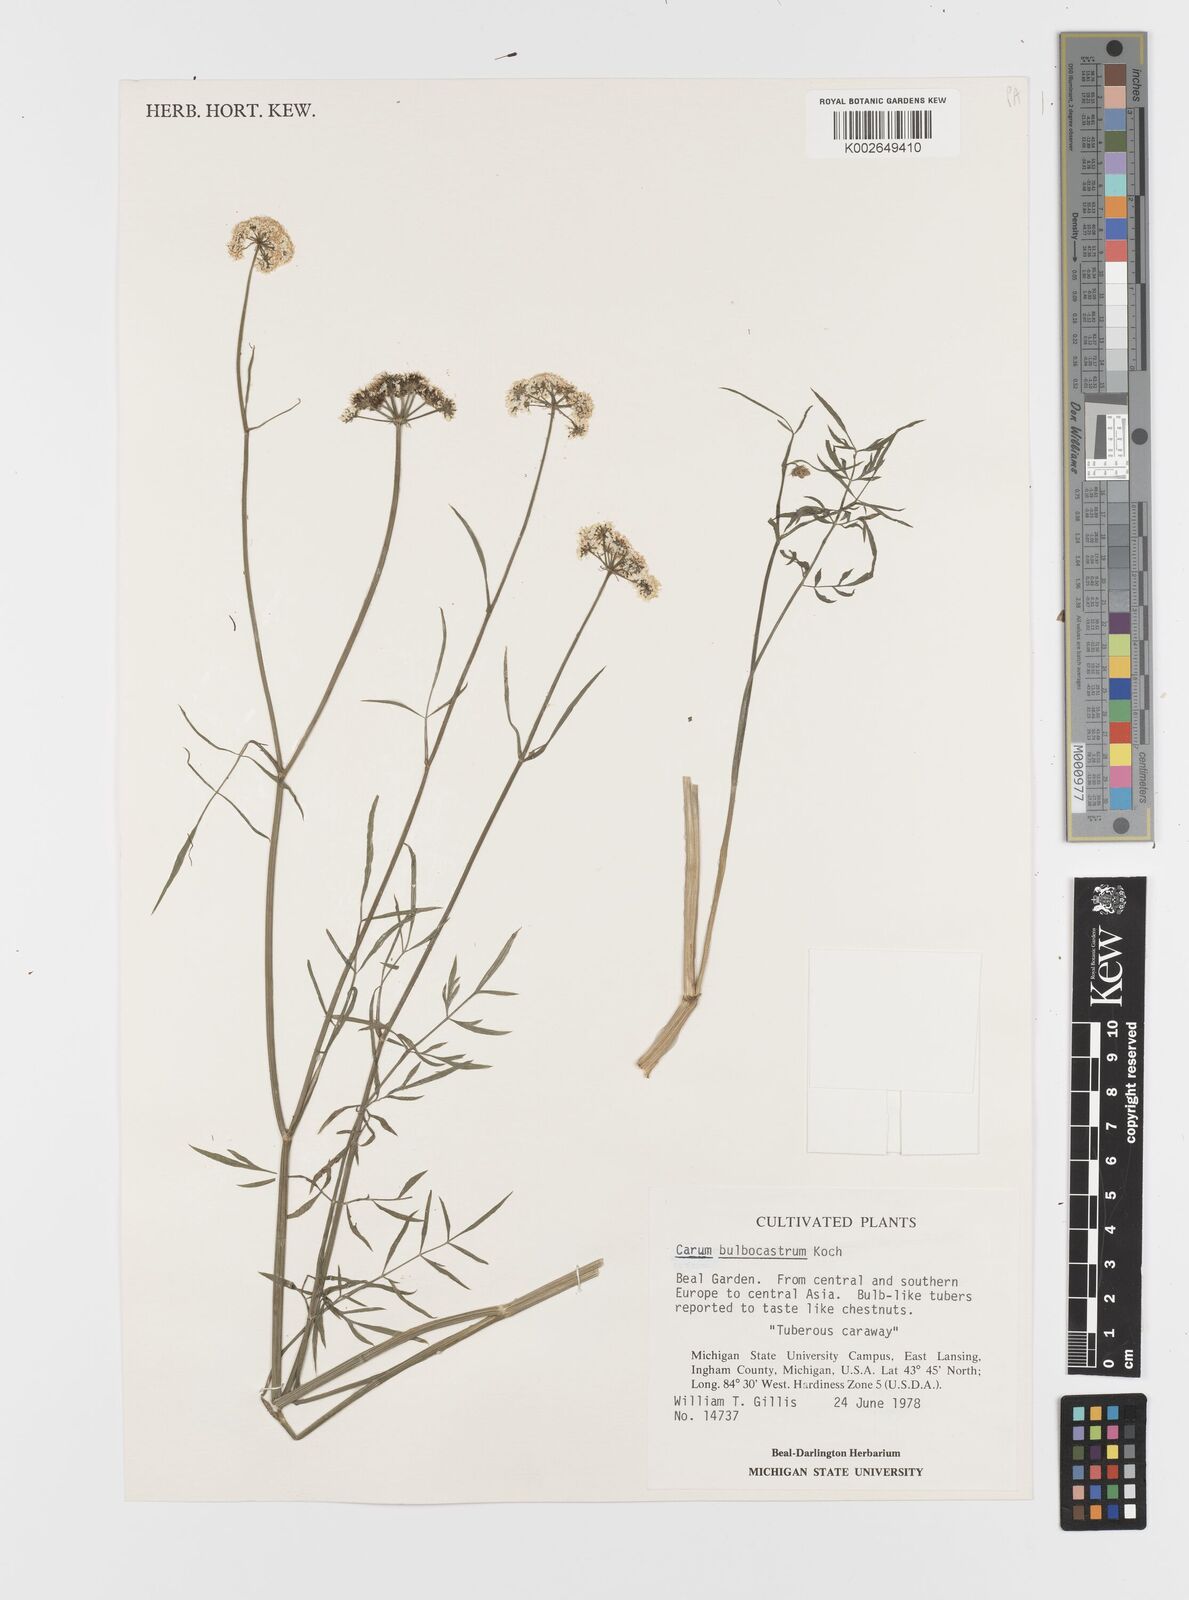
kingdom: Plantae
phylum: Tracheophyta
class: Magnoliopsida
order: Apiales
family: Apiaceae
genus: Bunium
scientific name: Bunium bulbocastanum
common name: Great pignut
